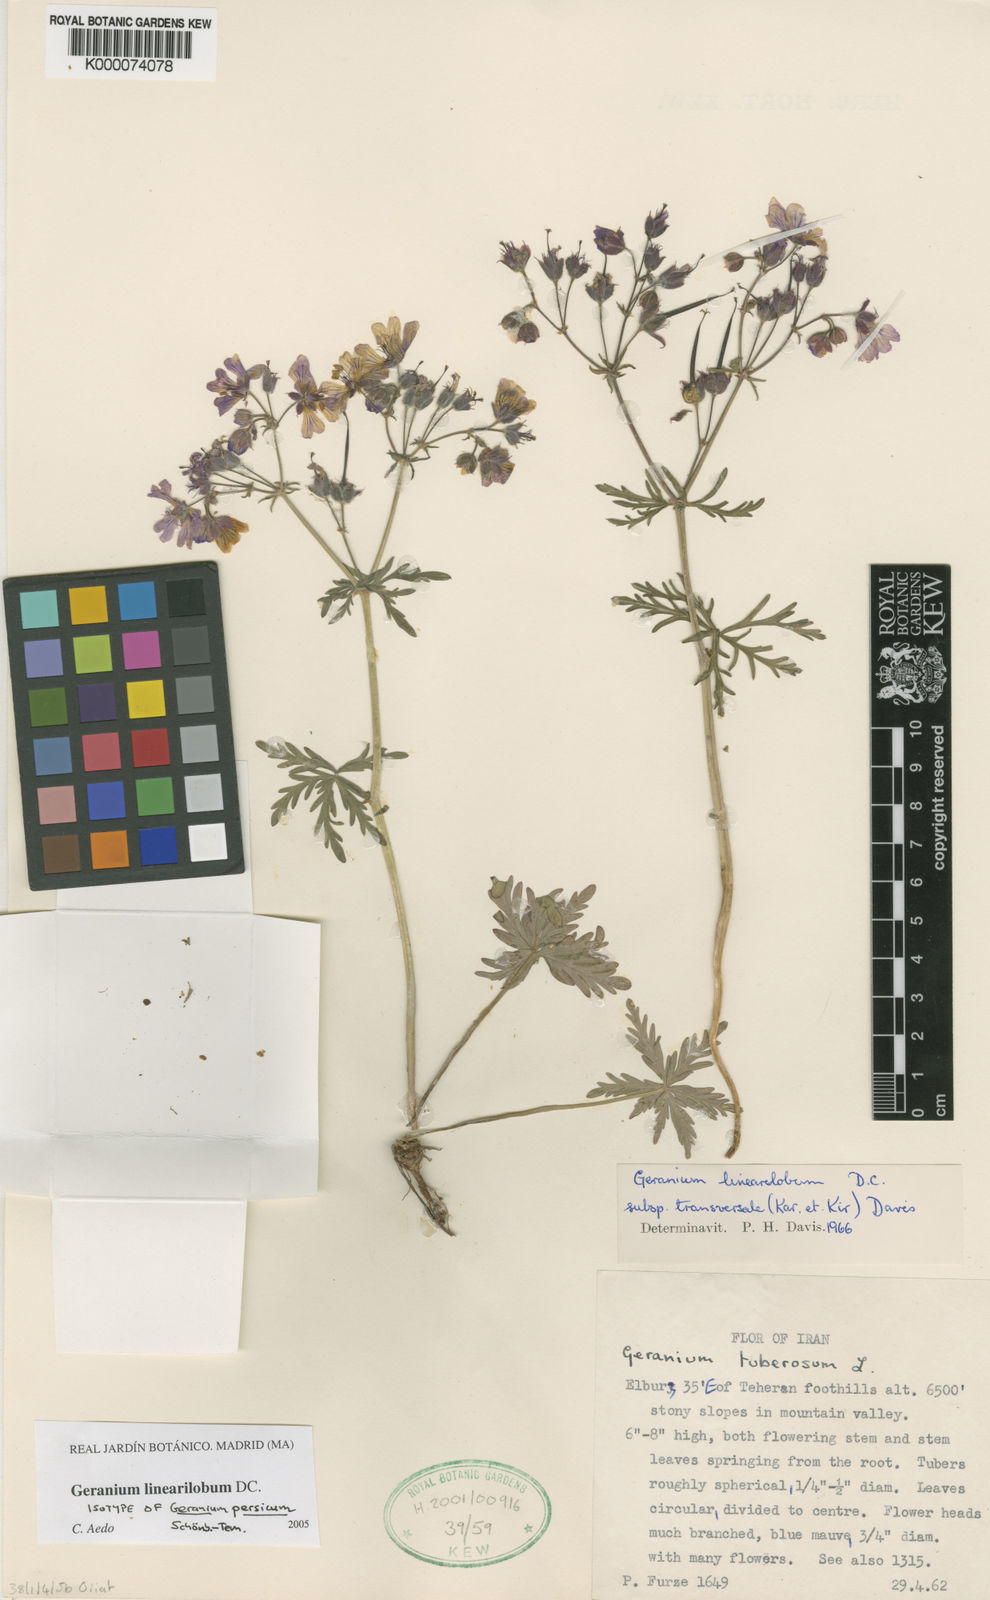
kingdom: Plantae
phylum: Tracheophyta
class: Magnoliopsida
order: Geraniales
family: Geraniaceae
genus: Geranium
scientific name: Geranium linearilobum
